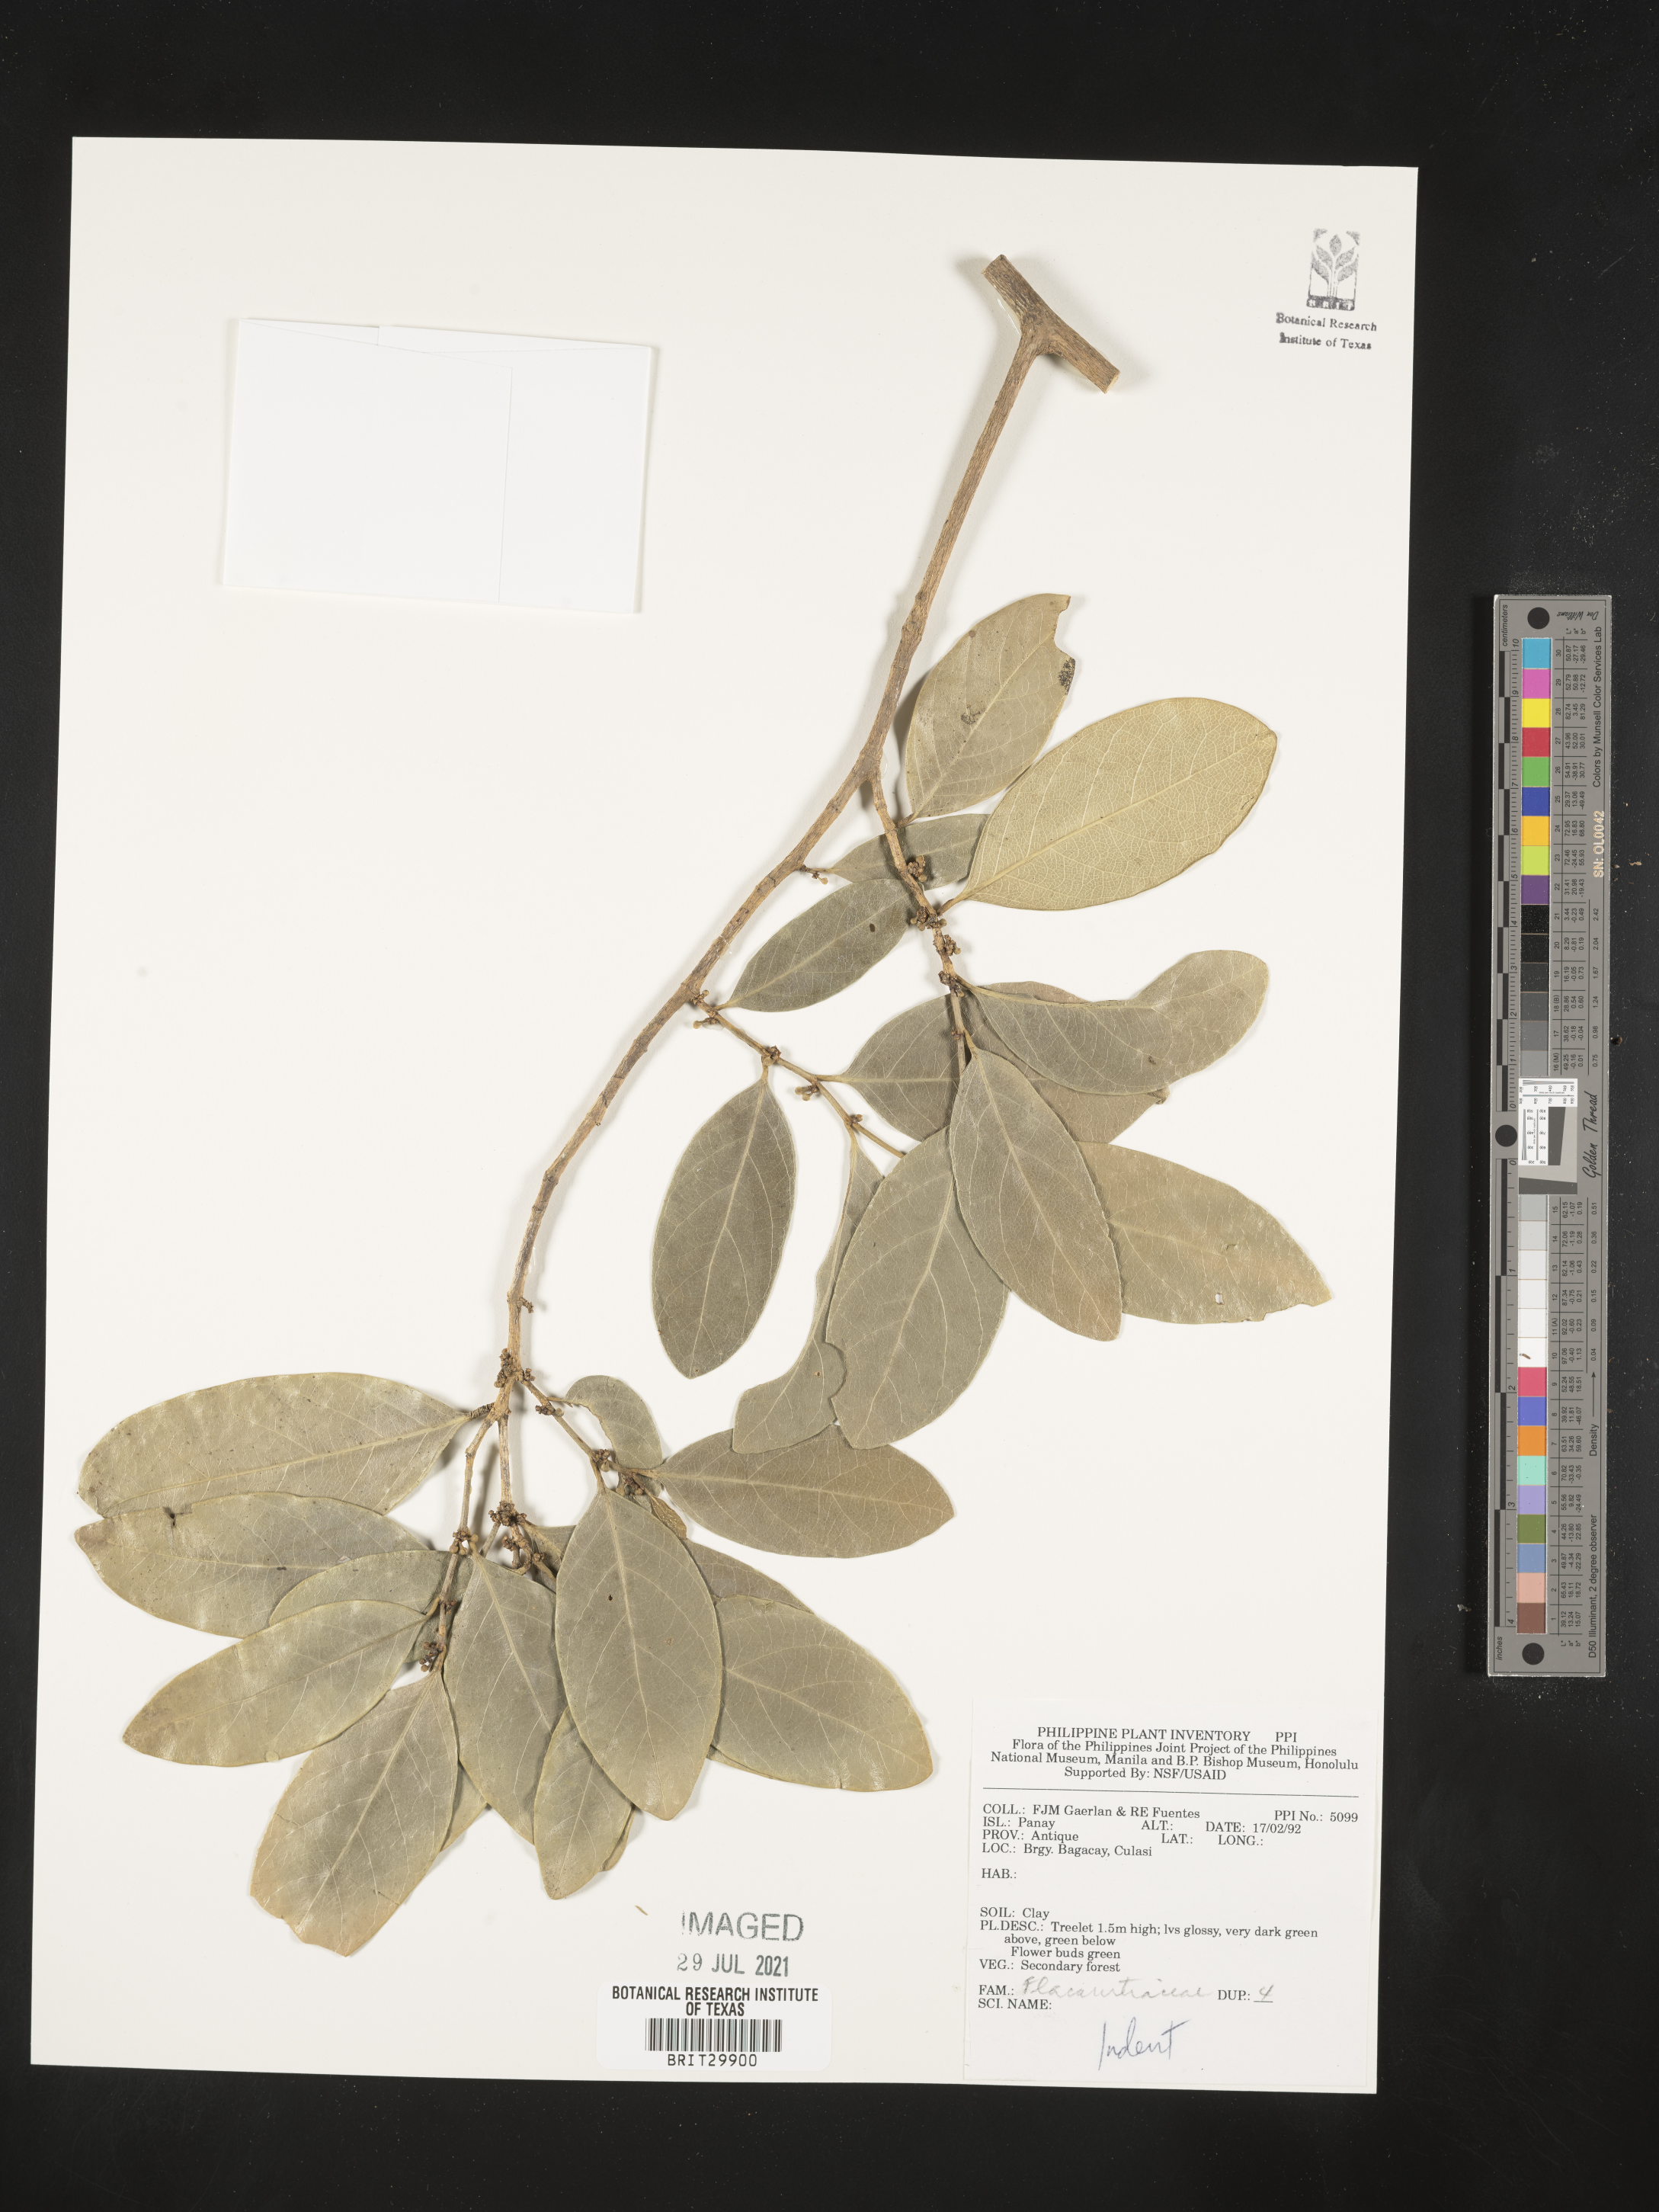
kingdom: Plantae
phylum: Tracheophyta
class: Magnoliopsida
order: Malpighiales
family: Flacourtiaceae
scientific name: Flacourtiaceae
